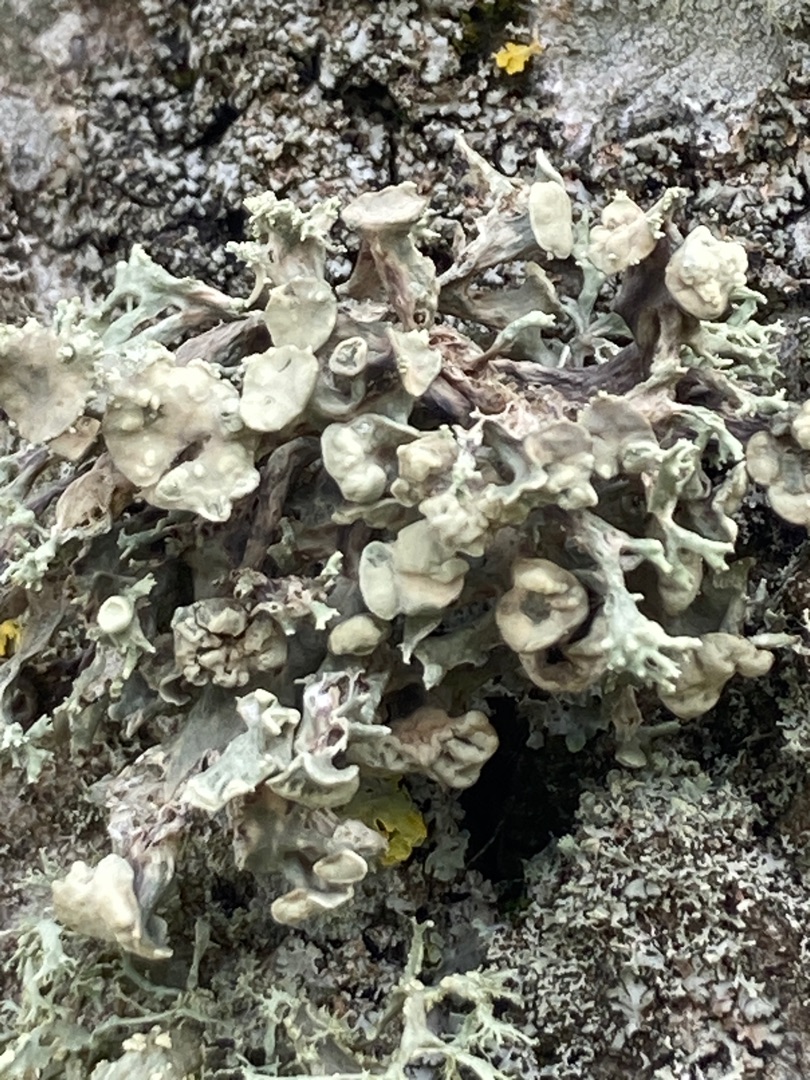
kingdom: Fungi
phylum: Ascomycota
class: Lecanoromycetes
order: Lecanorales
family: Ramalinaceae
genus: Ramalina
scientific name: Ramalina fastigiata
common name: Tue-grenlav
